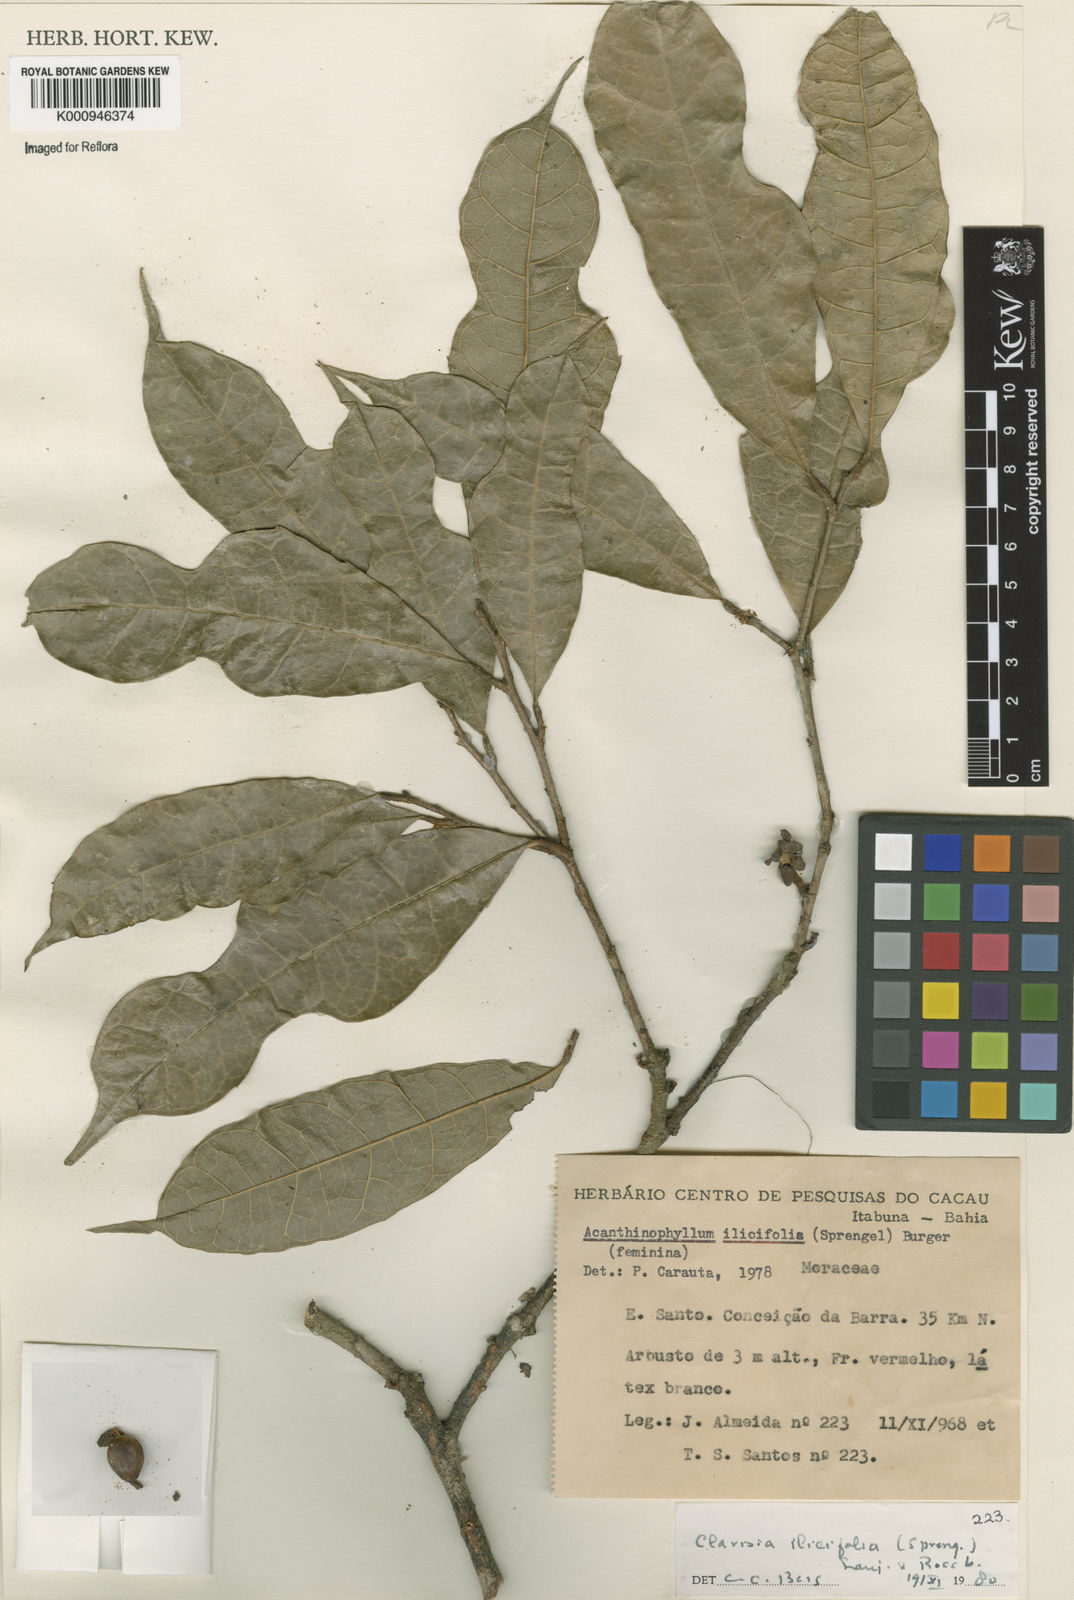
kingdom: Plantae
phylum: Tracheophyta
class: Magnoliopsida
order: Rosales
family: Moraceae
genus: Clarisia
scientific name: Clarisia ilicifolia
